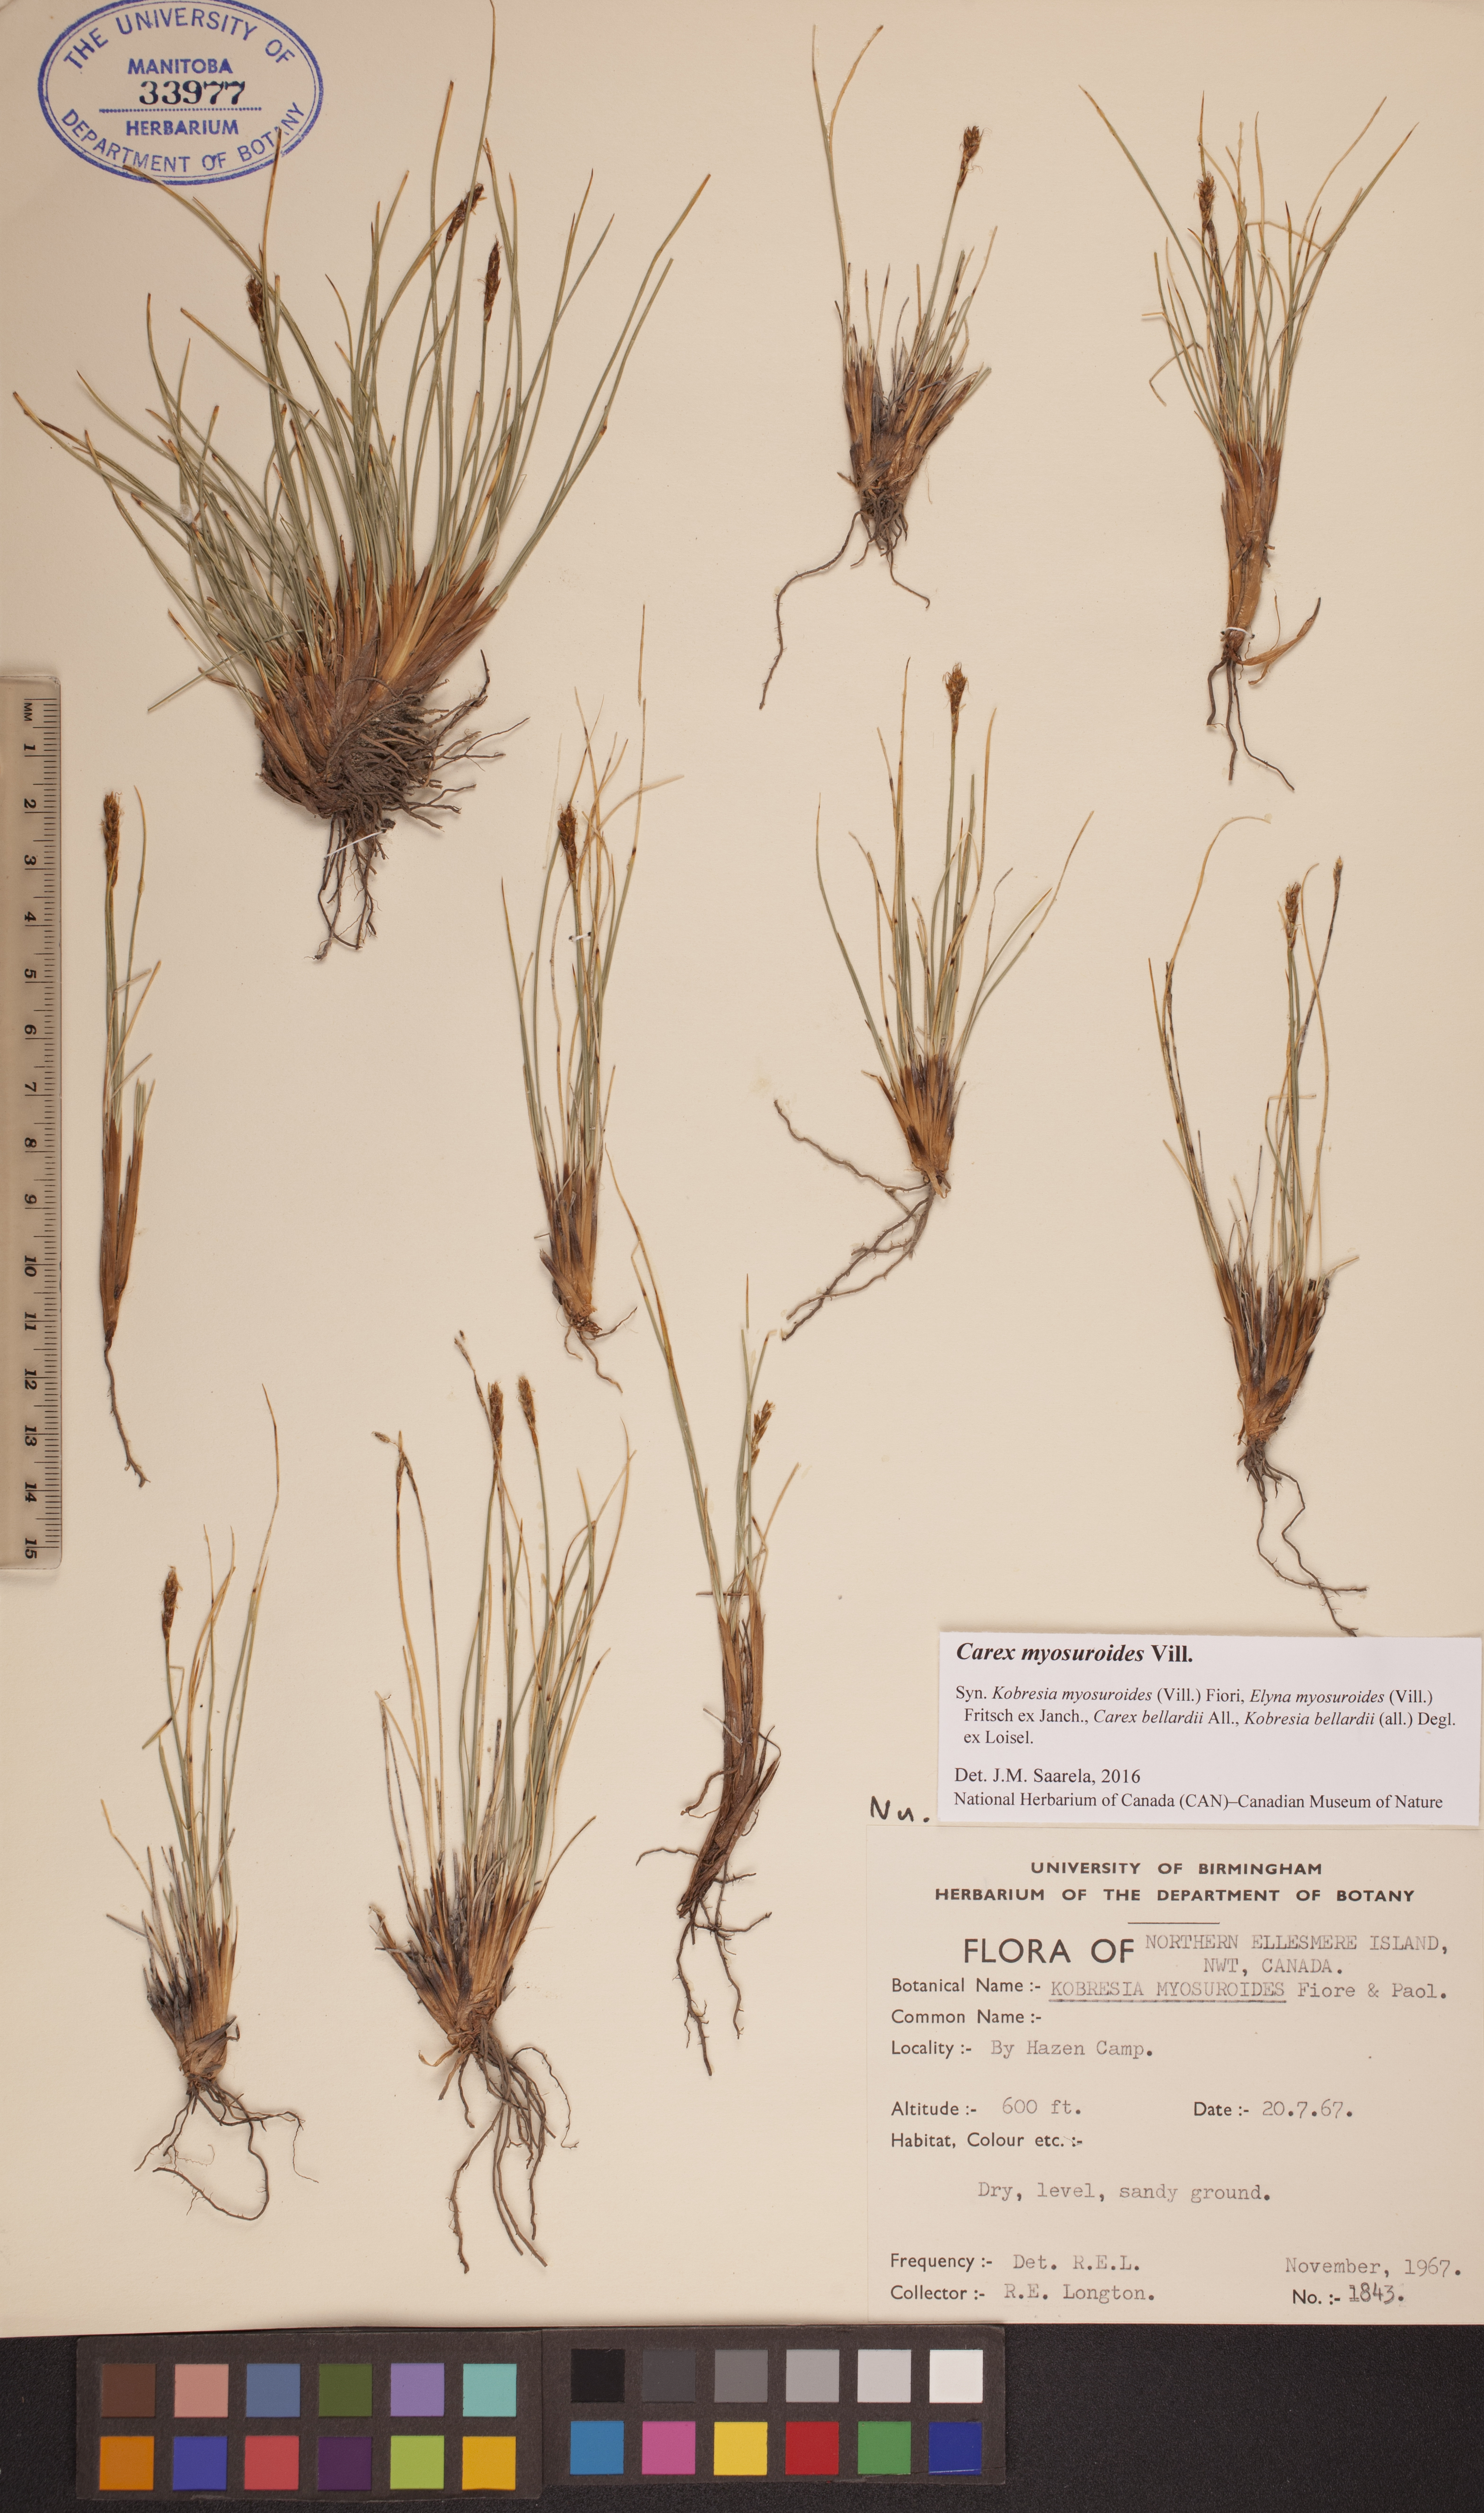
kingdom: Plantae
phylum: Tracheophyta
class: Liliopsida
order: Poales
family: Cyperaceae
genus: Carex
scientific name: Carex myosuroides
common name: Bellard's bog sedge
